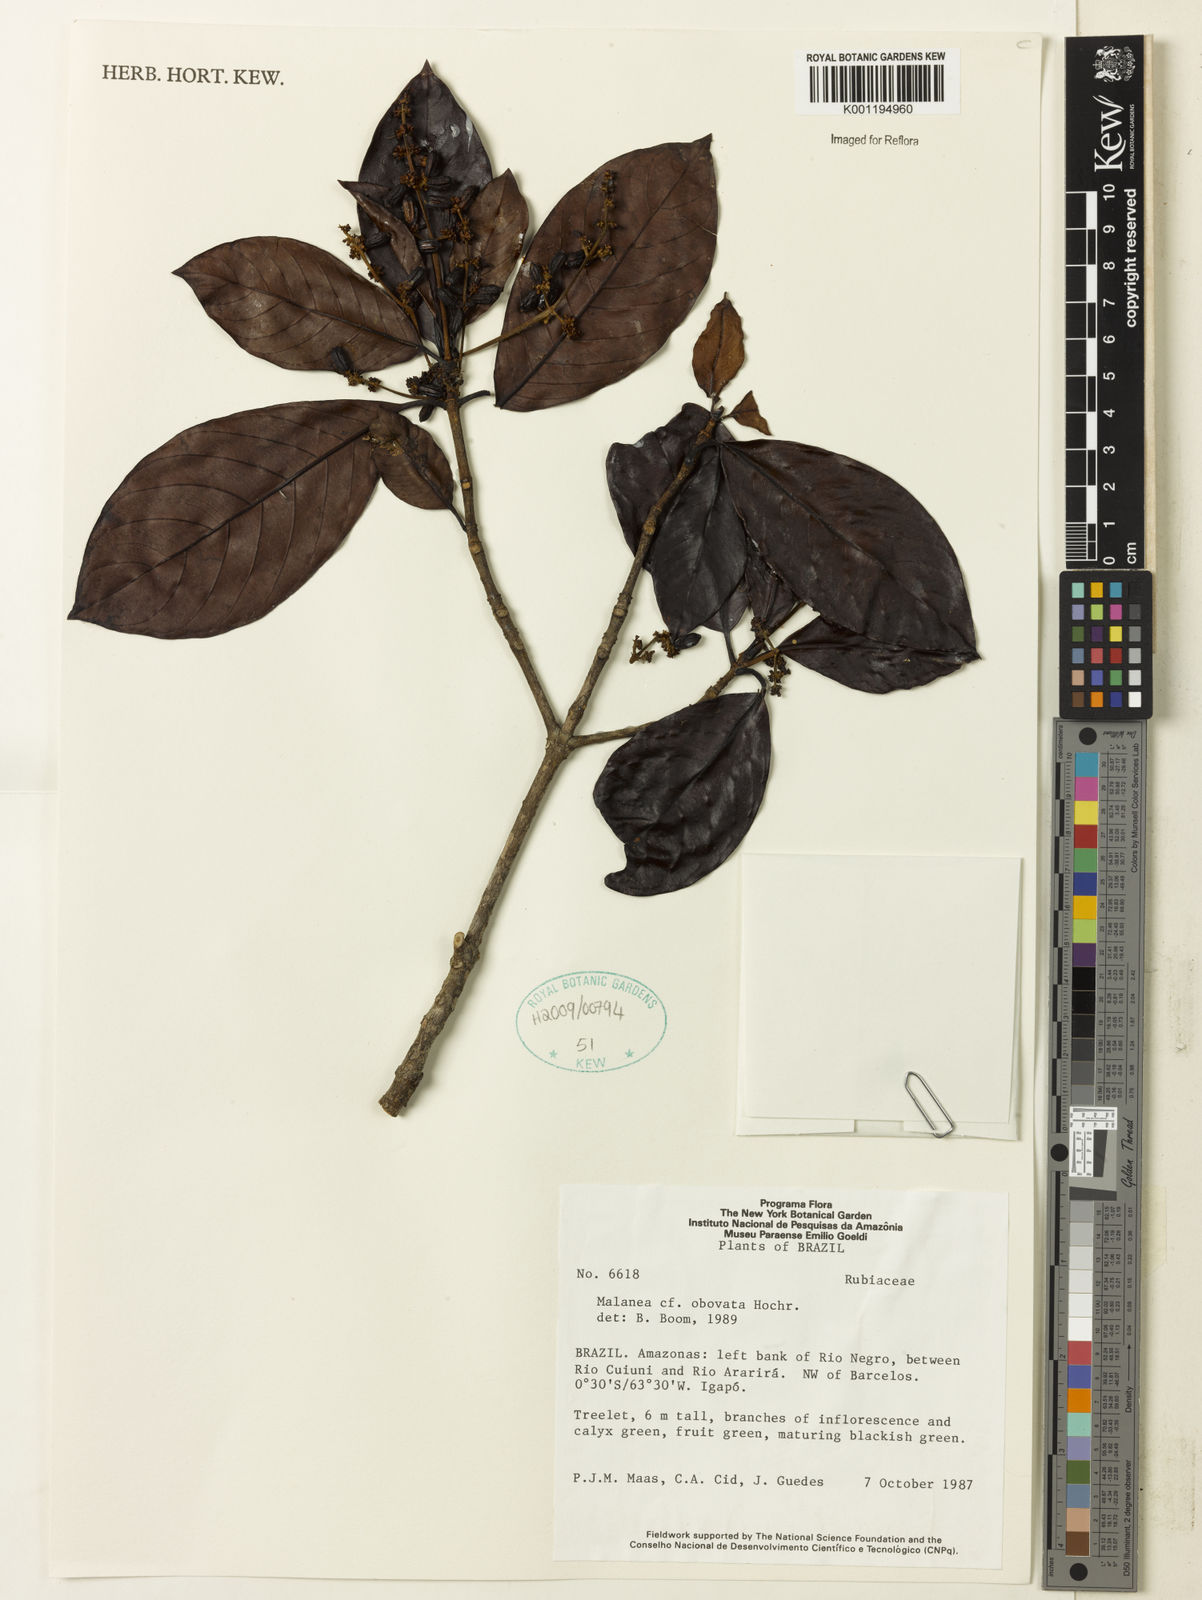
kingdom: Plantae
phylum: Tracheophyta
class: Magnoliopsida
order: Gentianales
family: Rubiaceae
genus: Malanea
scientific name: Malanea obovata
